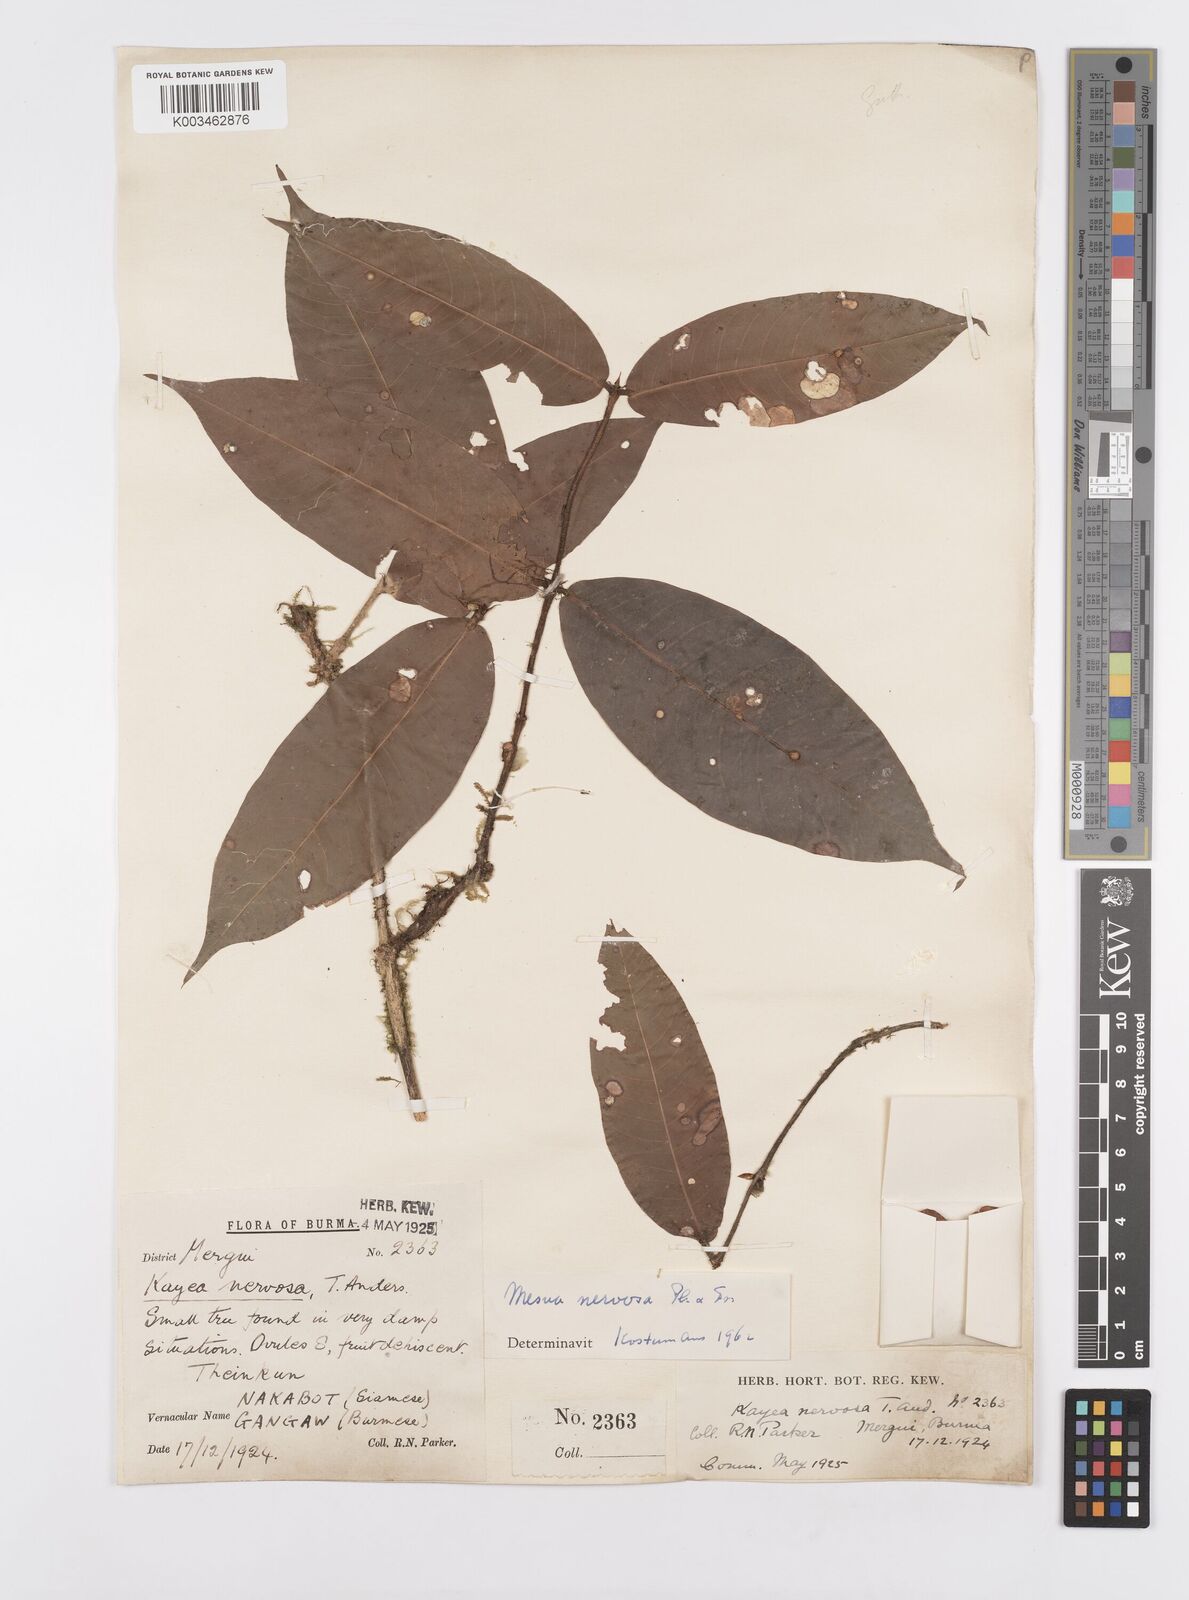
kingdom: Plantae
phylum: Tracheophyta
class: Magnoliopsida
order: Malpighiales
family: Calophyllaceae
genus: Kayea
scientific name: Kayea nervosa
